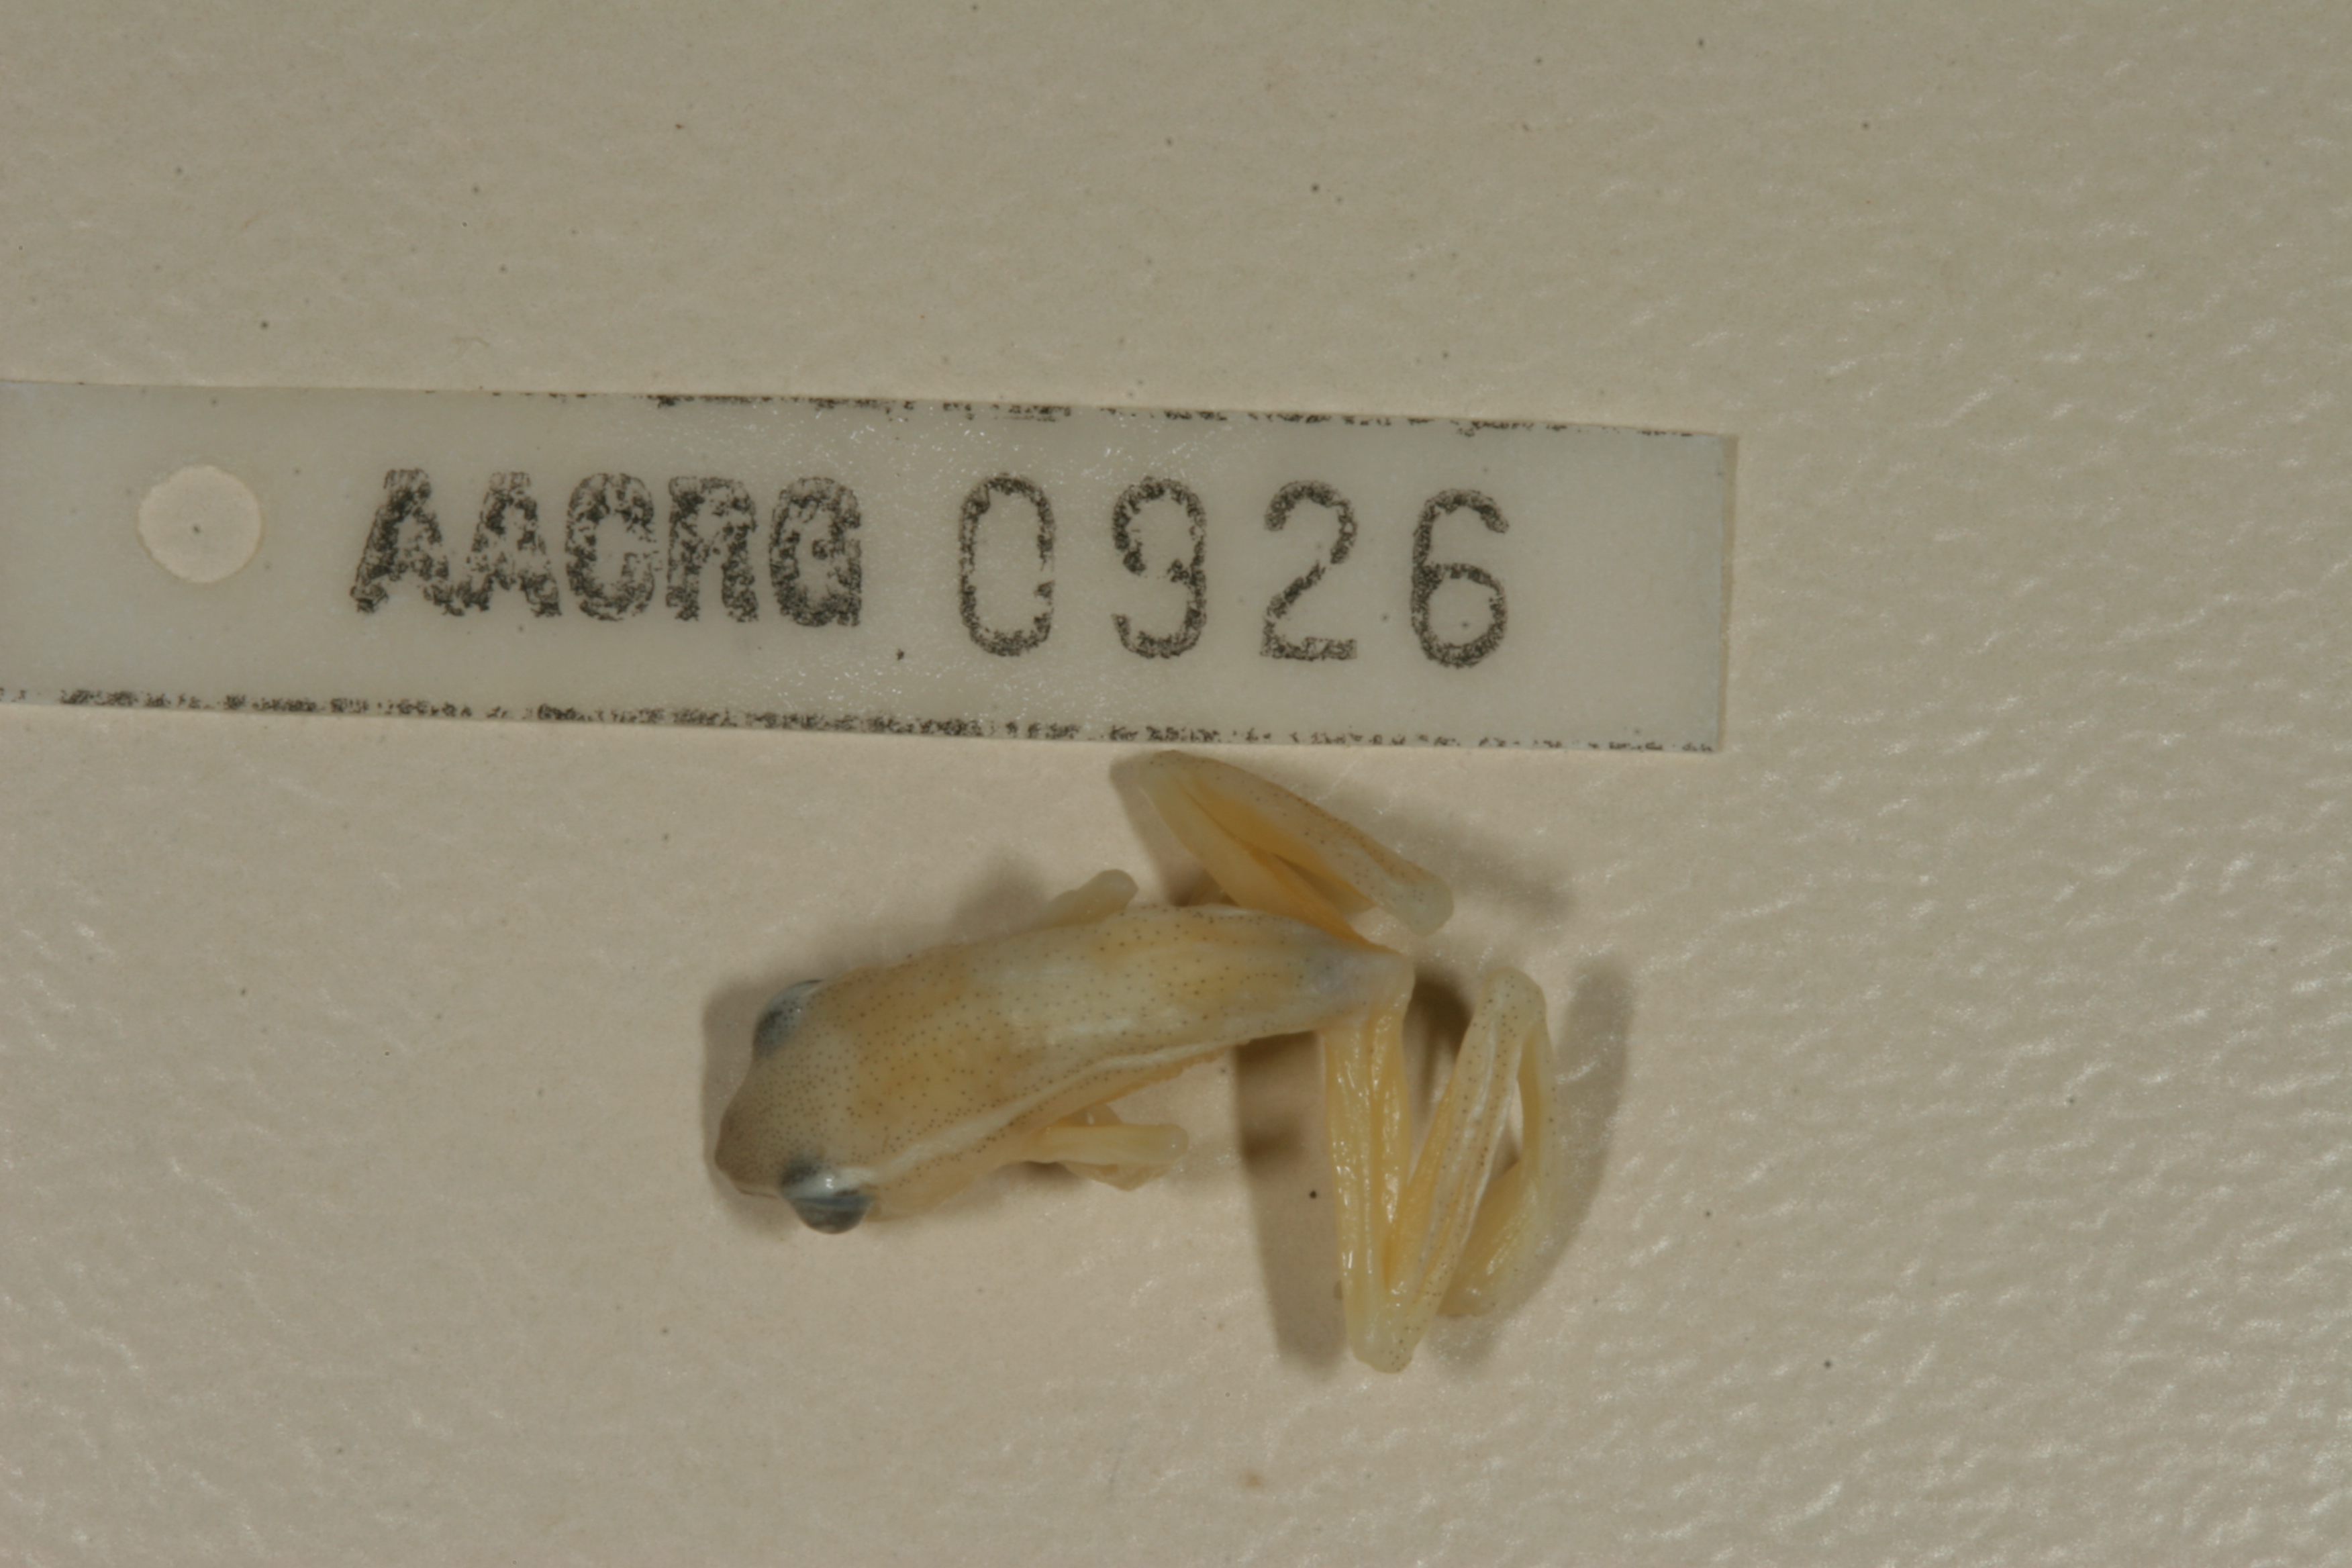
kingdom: Animalia
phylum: Chordata
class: Amphibia
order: Anura
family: Hyperoliidae
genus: Hyperolius
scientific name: Hyperolius nasutus
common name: Sharp-and-blunt-snouted sedge frog
